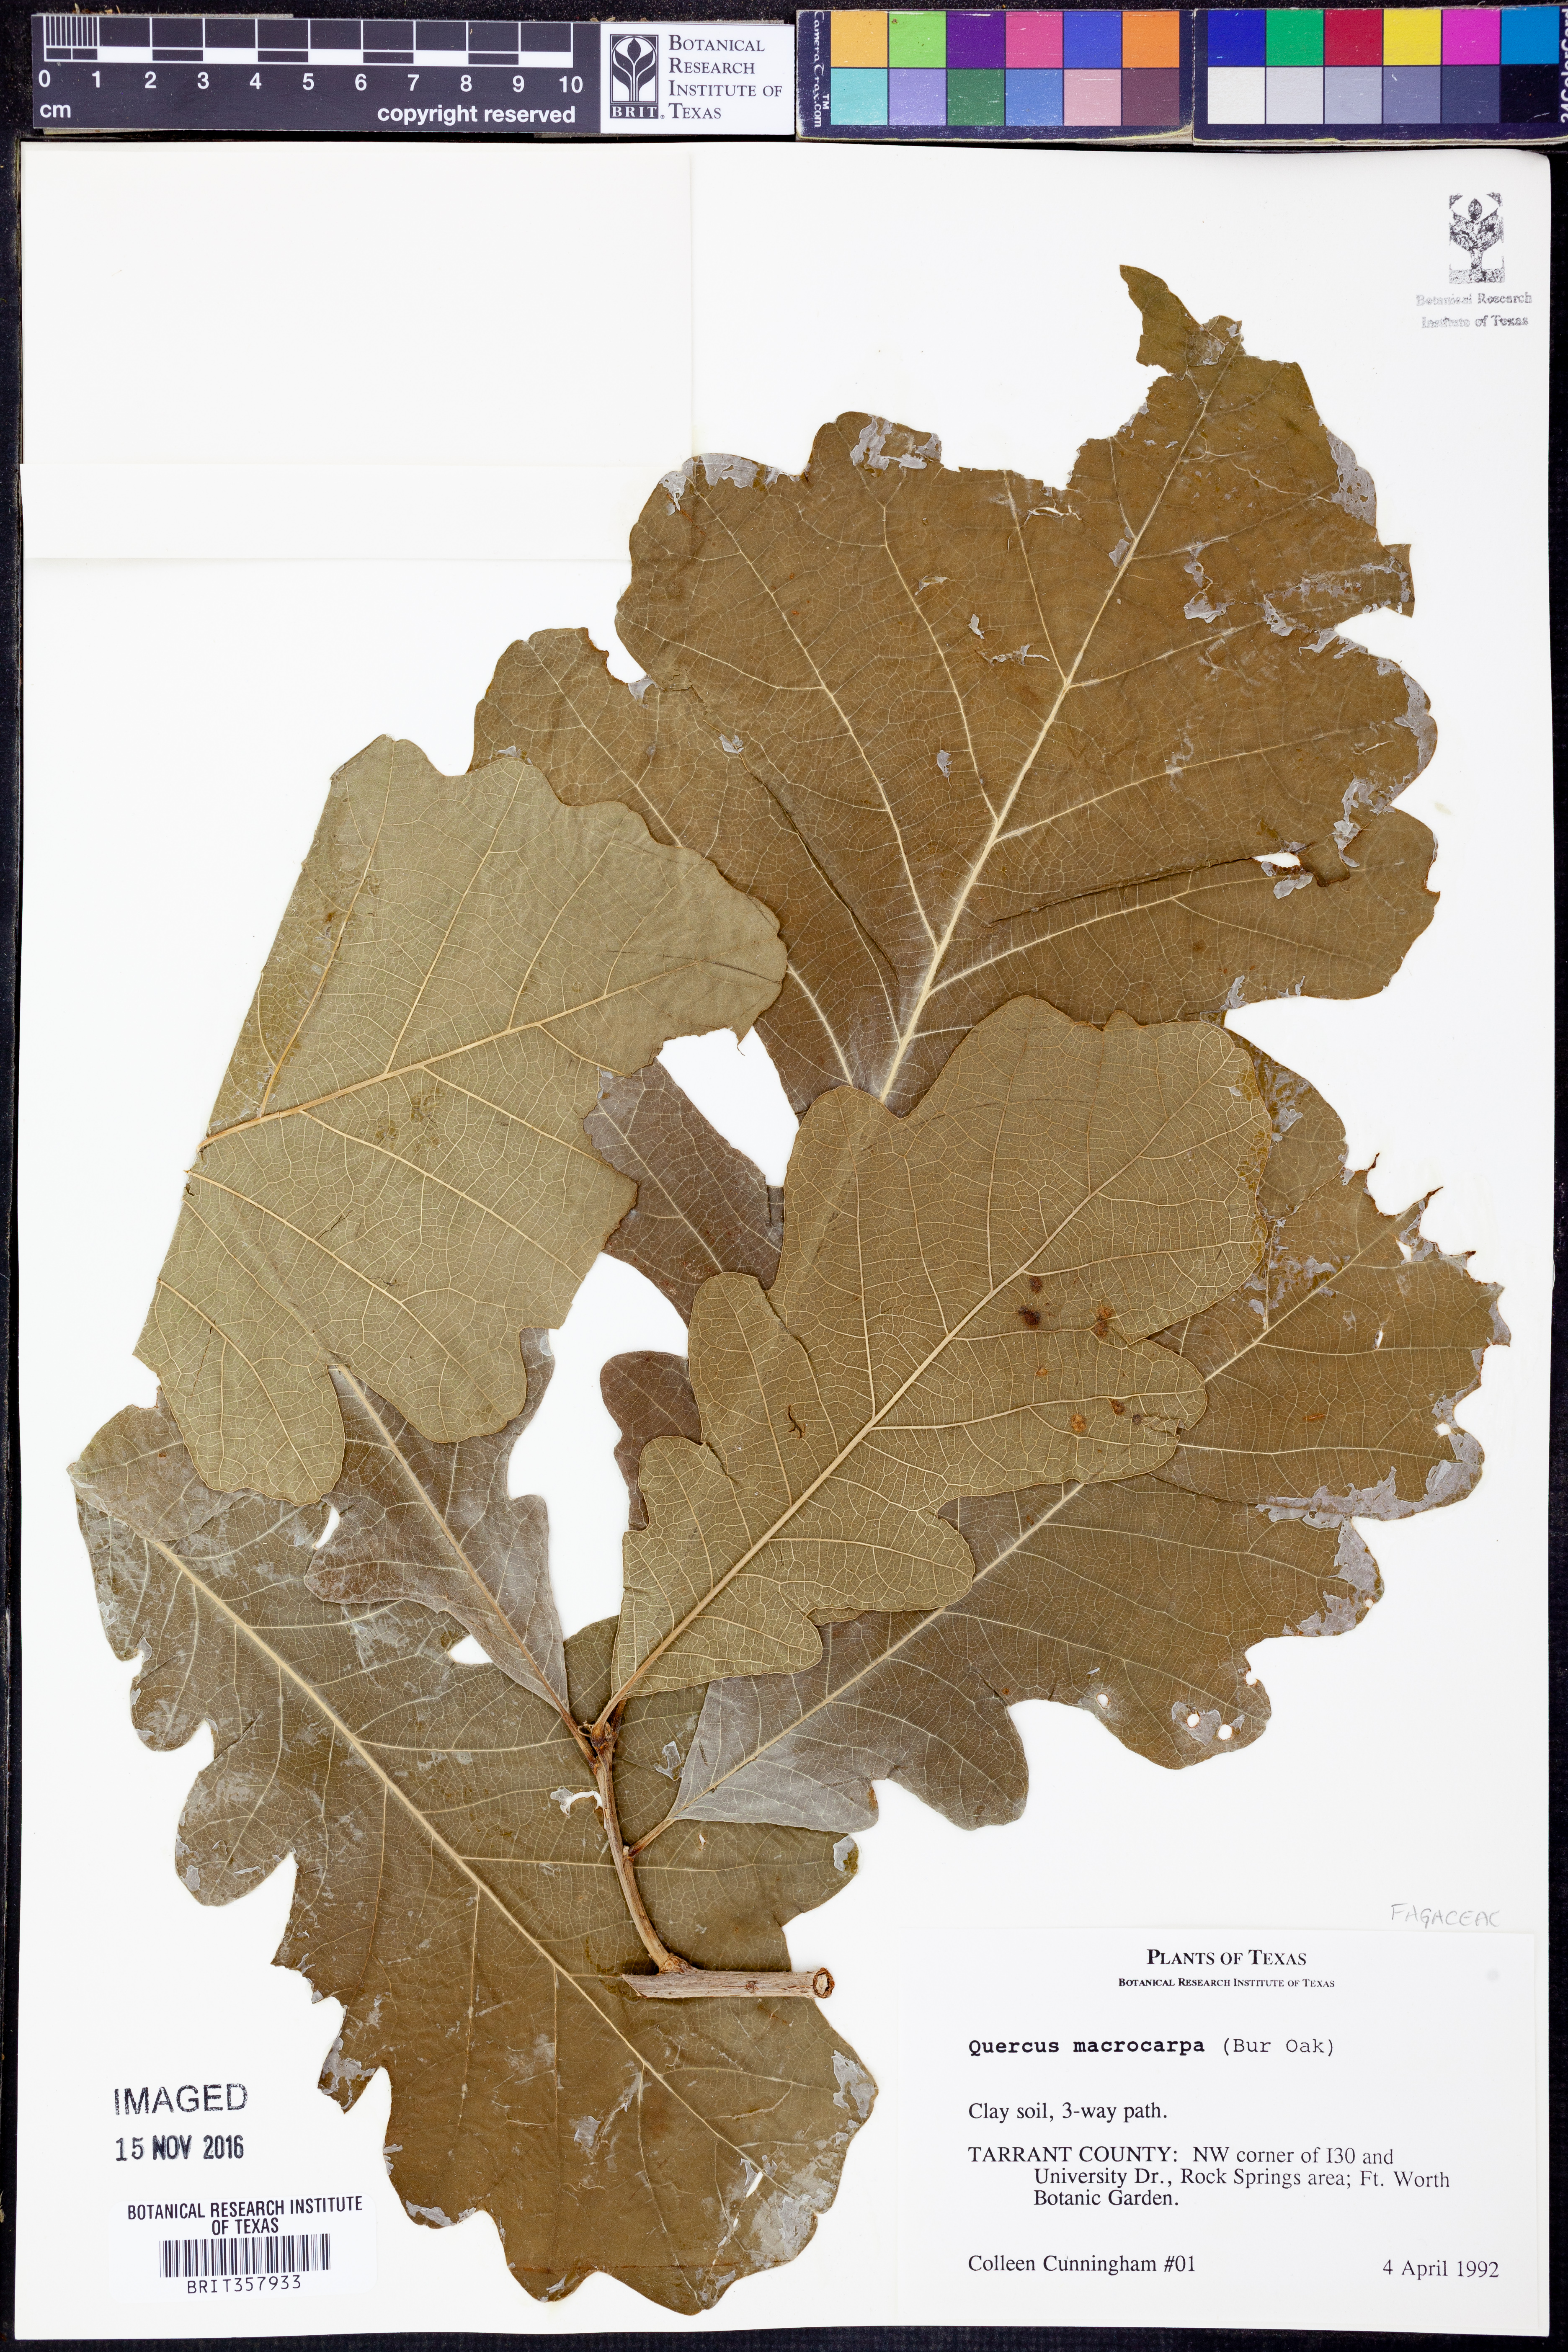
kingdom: Plantae
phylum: Tracheophyta
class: Magnoliopsida
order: Fagales
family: Fagaceae
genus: Quercus
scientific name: Quercus macrocarpa
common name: Bur oak
